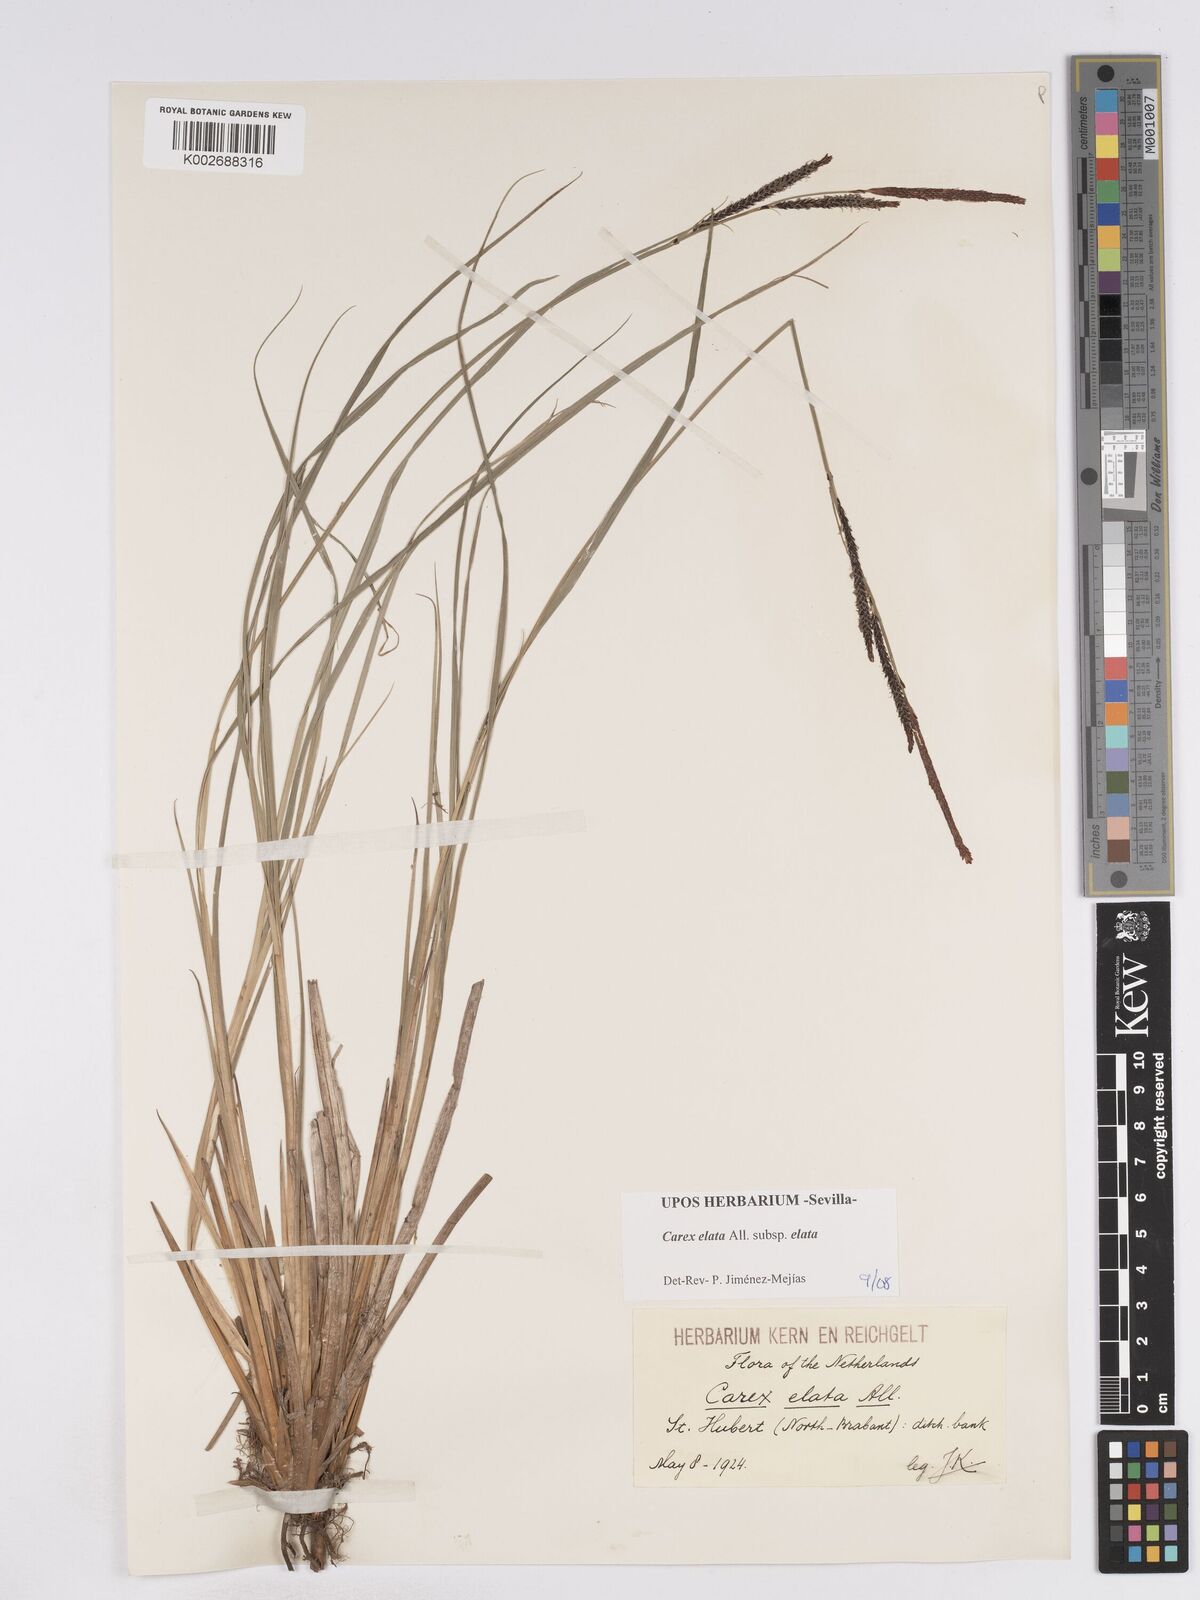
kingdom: Plantae
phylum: Tracheophyta
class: Liliopsida
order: Poales
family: Cyperaceae
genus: Carex
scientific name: Carex elata
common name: Tufted sedge
